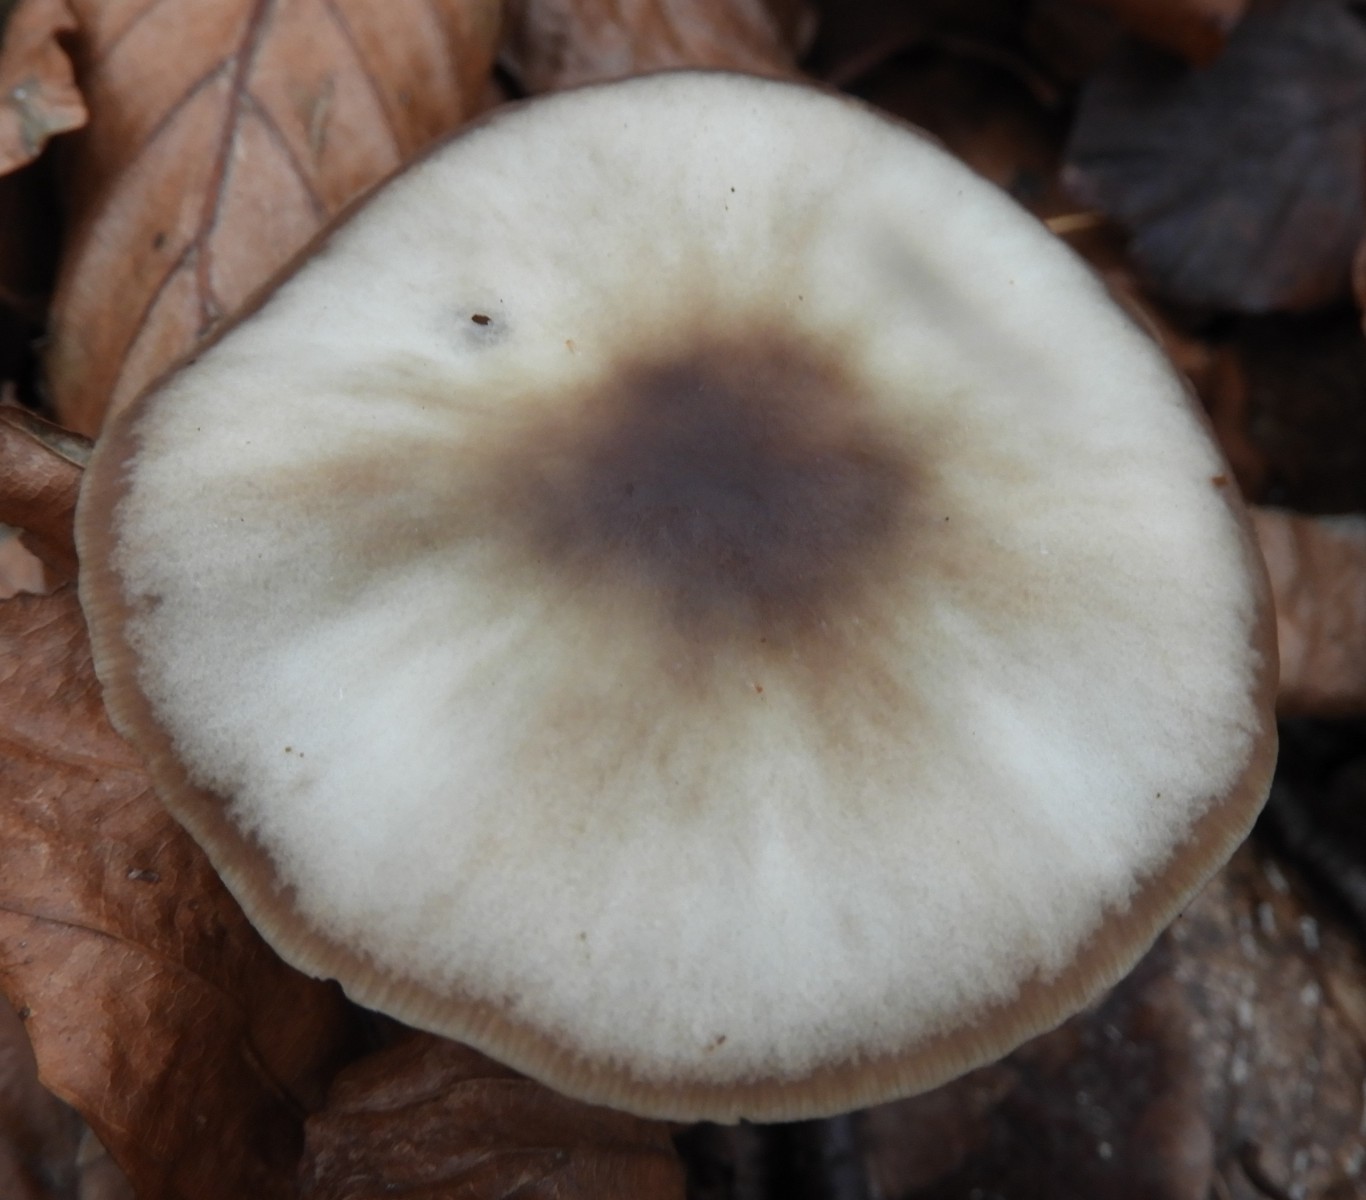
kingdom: Fungi
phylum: Basidiomycota
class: Agaricomycetes
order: Agaricales
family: Omphalotaceae
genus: Rhodocollybia
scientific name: Rhodocollybia asema
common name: horngrå fladhat
